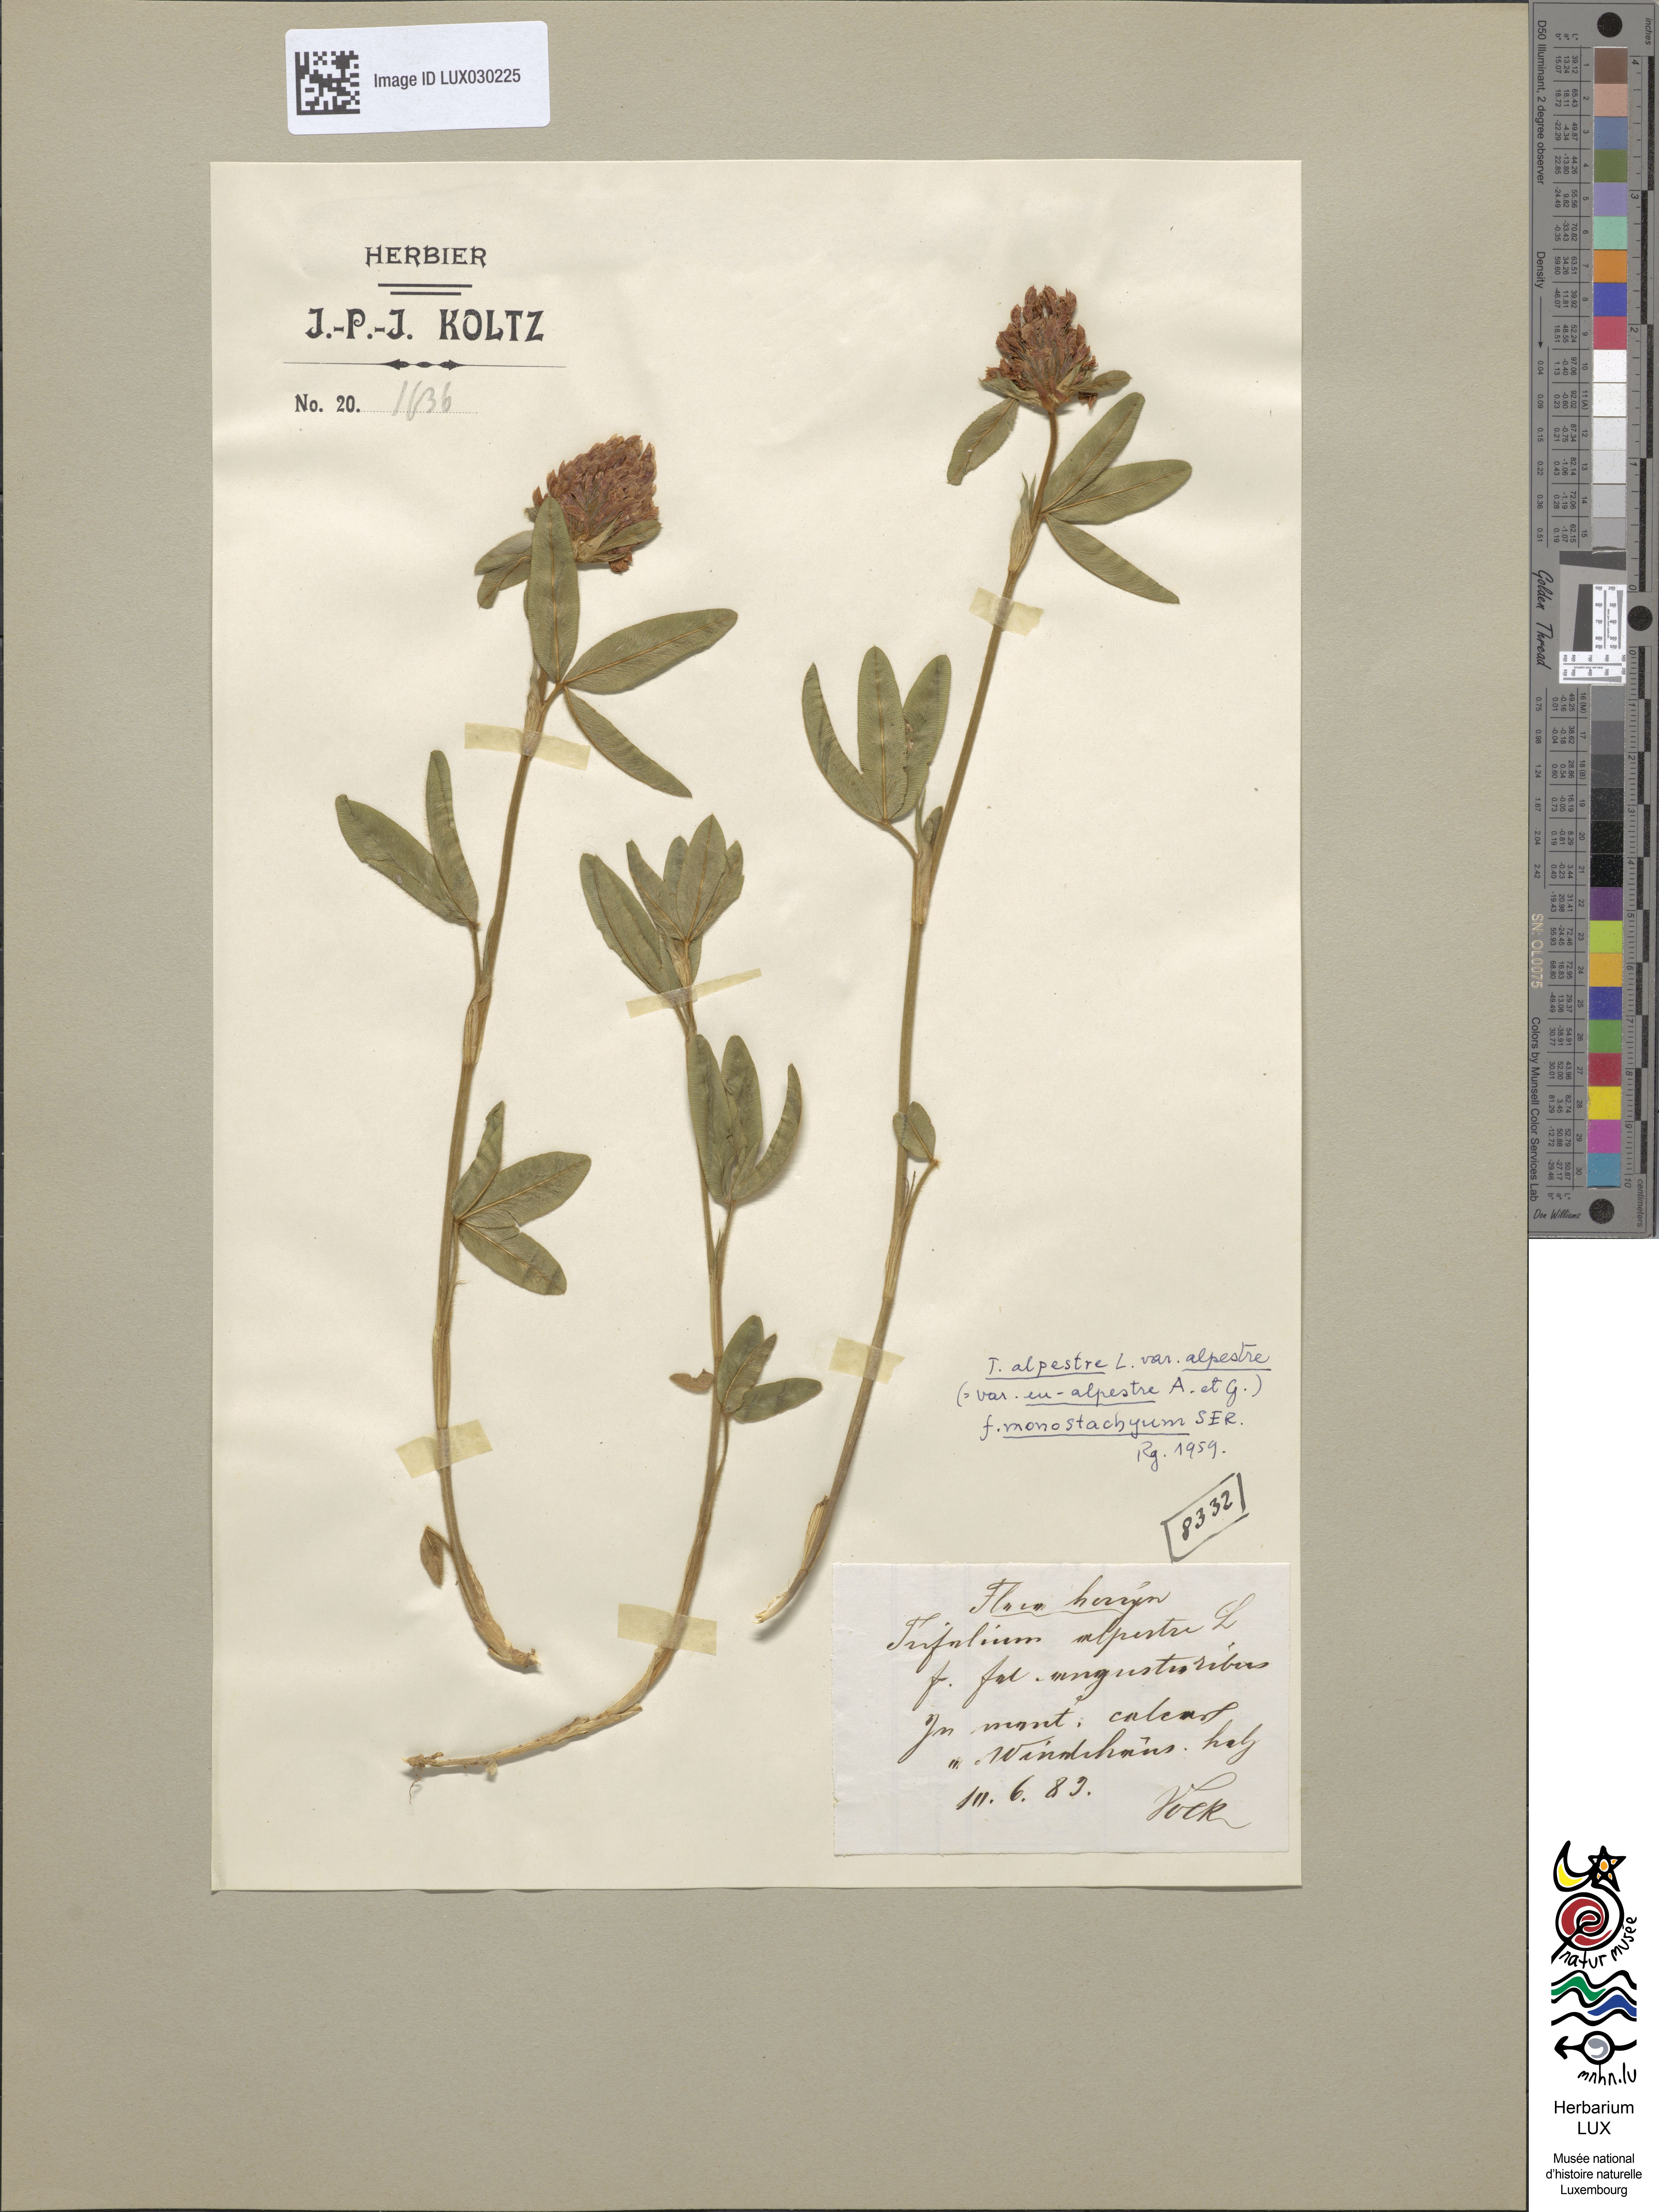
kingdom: Plantae
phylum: Tracheophyta
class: Magnoliopsida
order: Fabales
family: Fabaceae
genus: Trifolium
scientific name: Trifolium alpestre
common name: Owl-head clover
